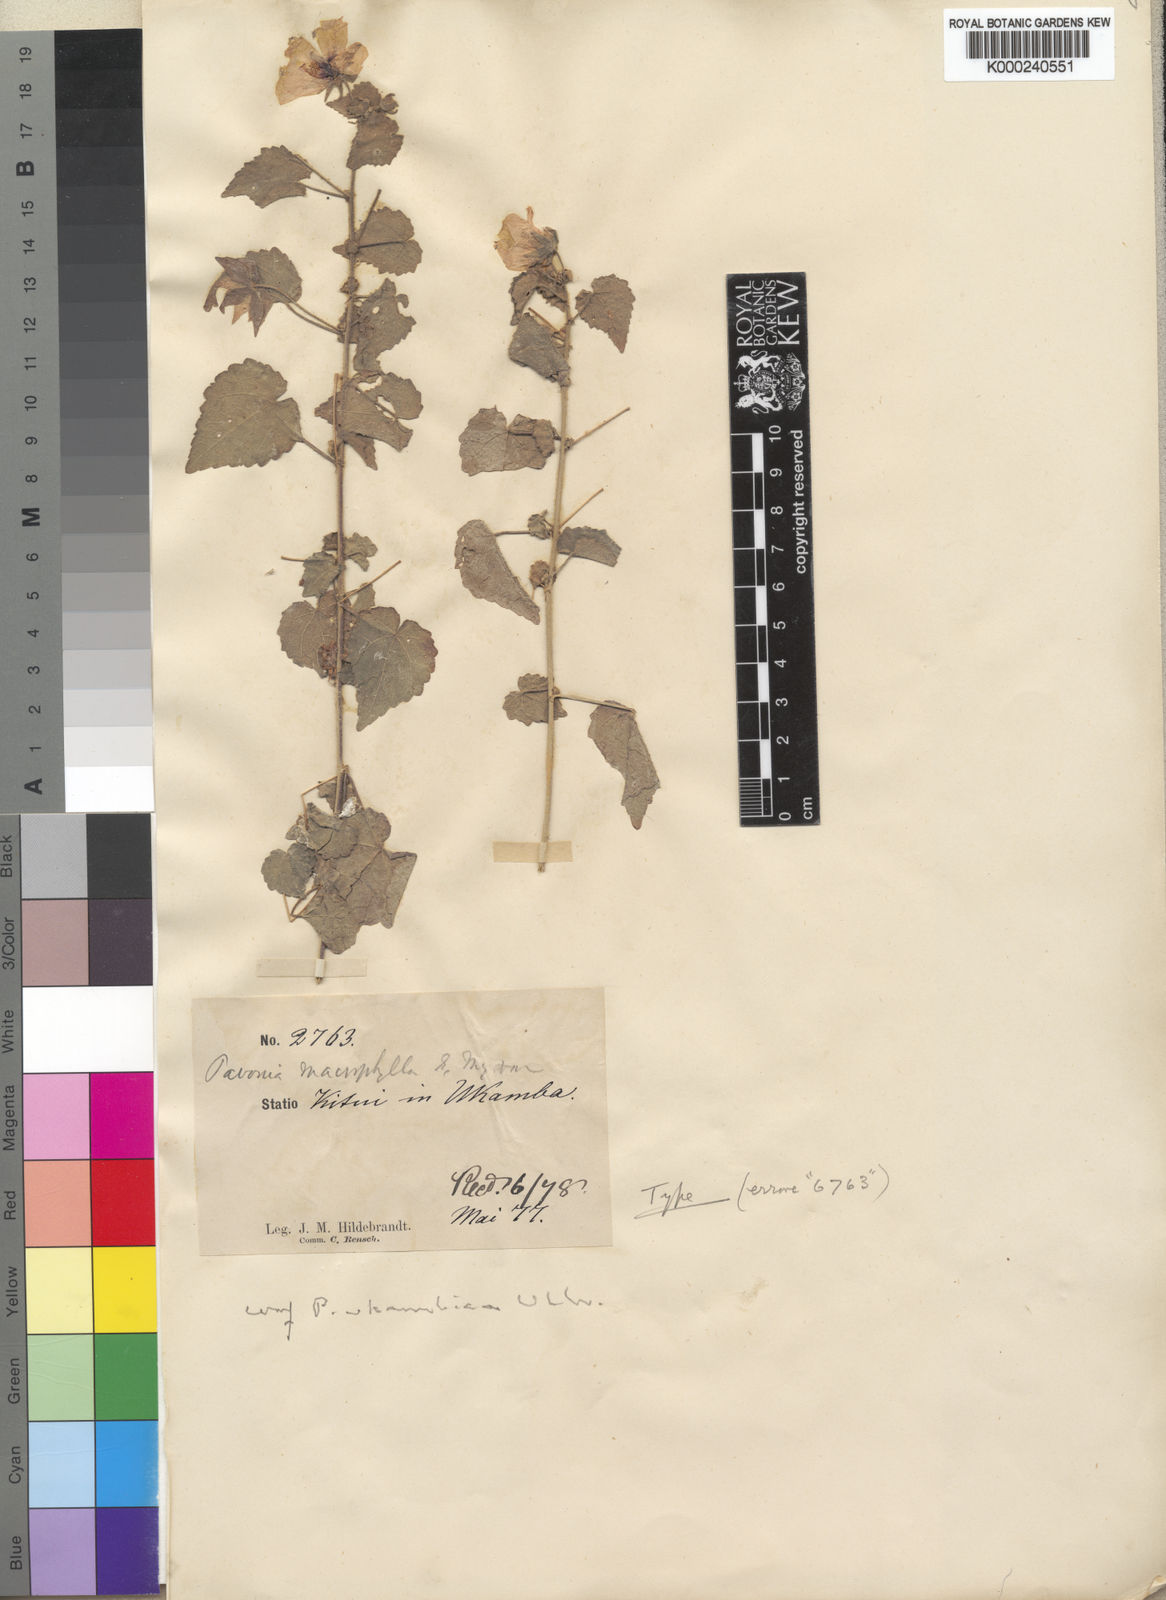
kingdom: Plantae
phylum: Tracheophyta
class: Magnoliopsida
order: Malvales
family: Malvaceae
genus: Pavonia
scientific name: Pavonia procumbens
